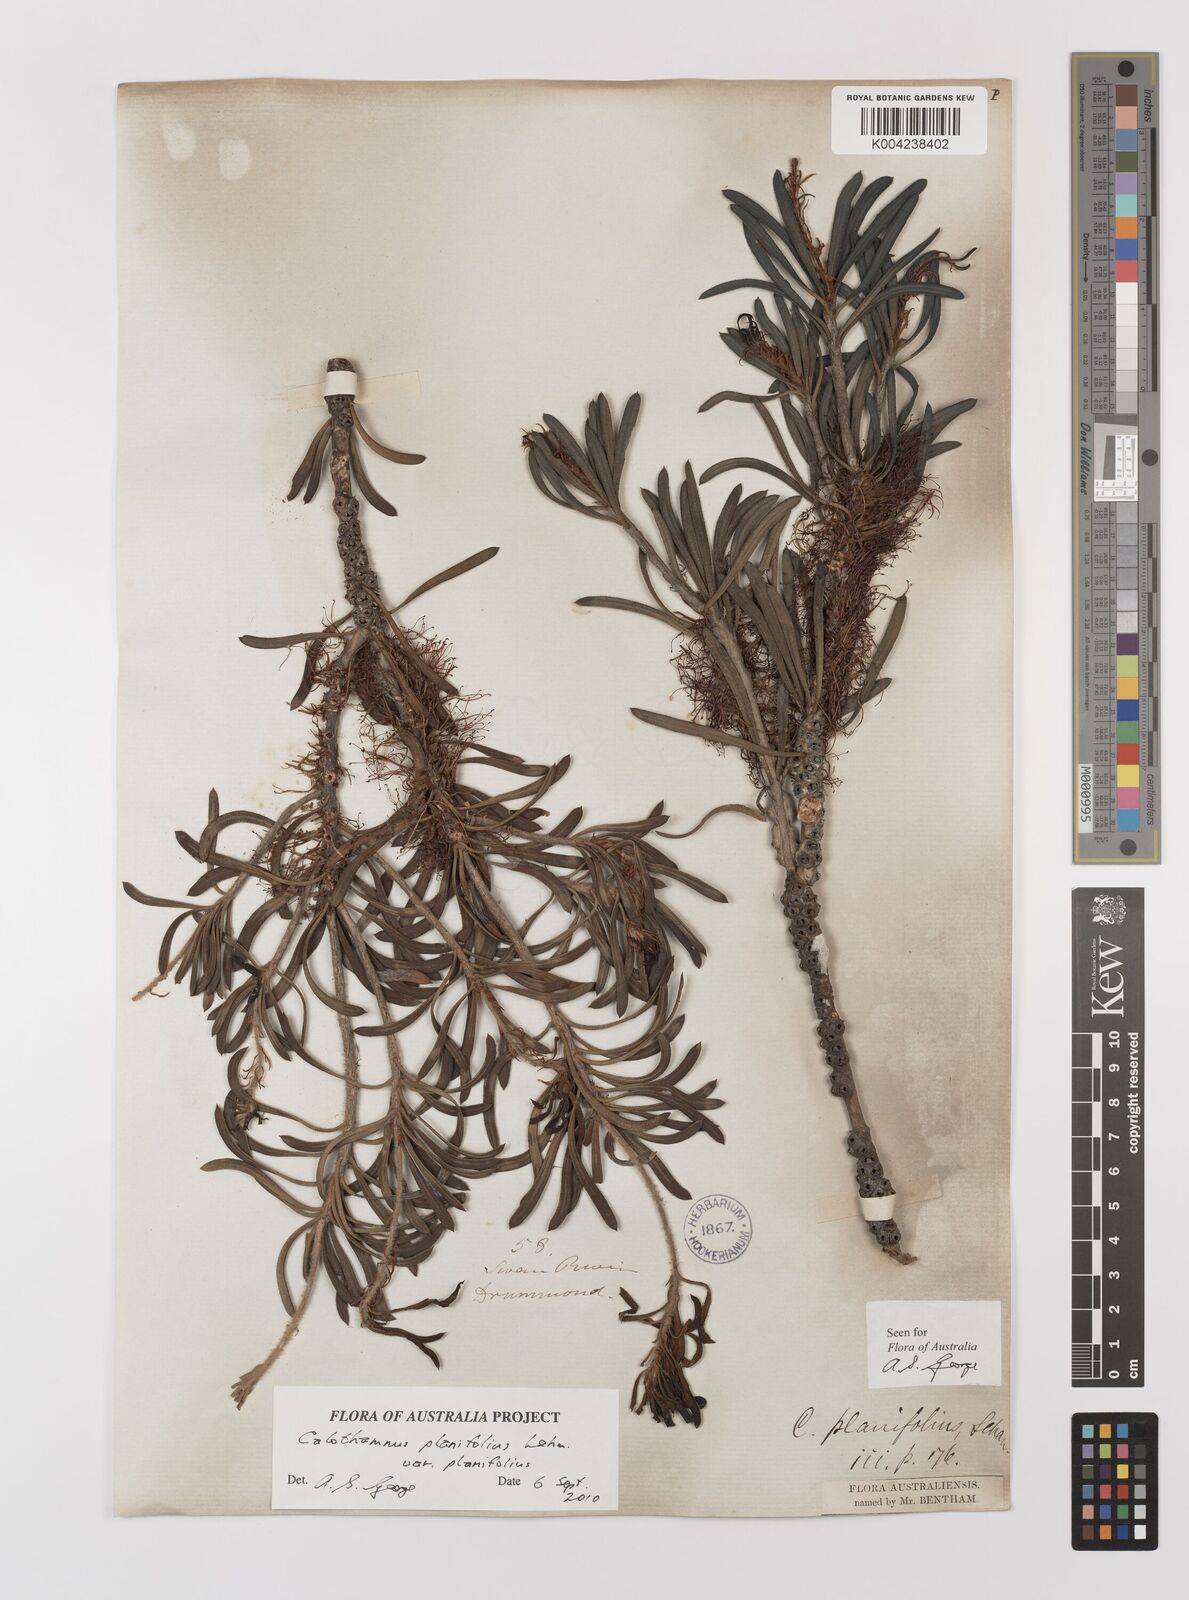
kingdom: Plantae
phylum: Tracheophyta
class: Magnoliopsida
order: Myrtales
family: Myrtaceae
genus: Melaleuca
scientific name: Melaleuca planifolia
